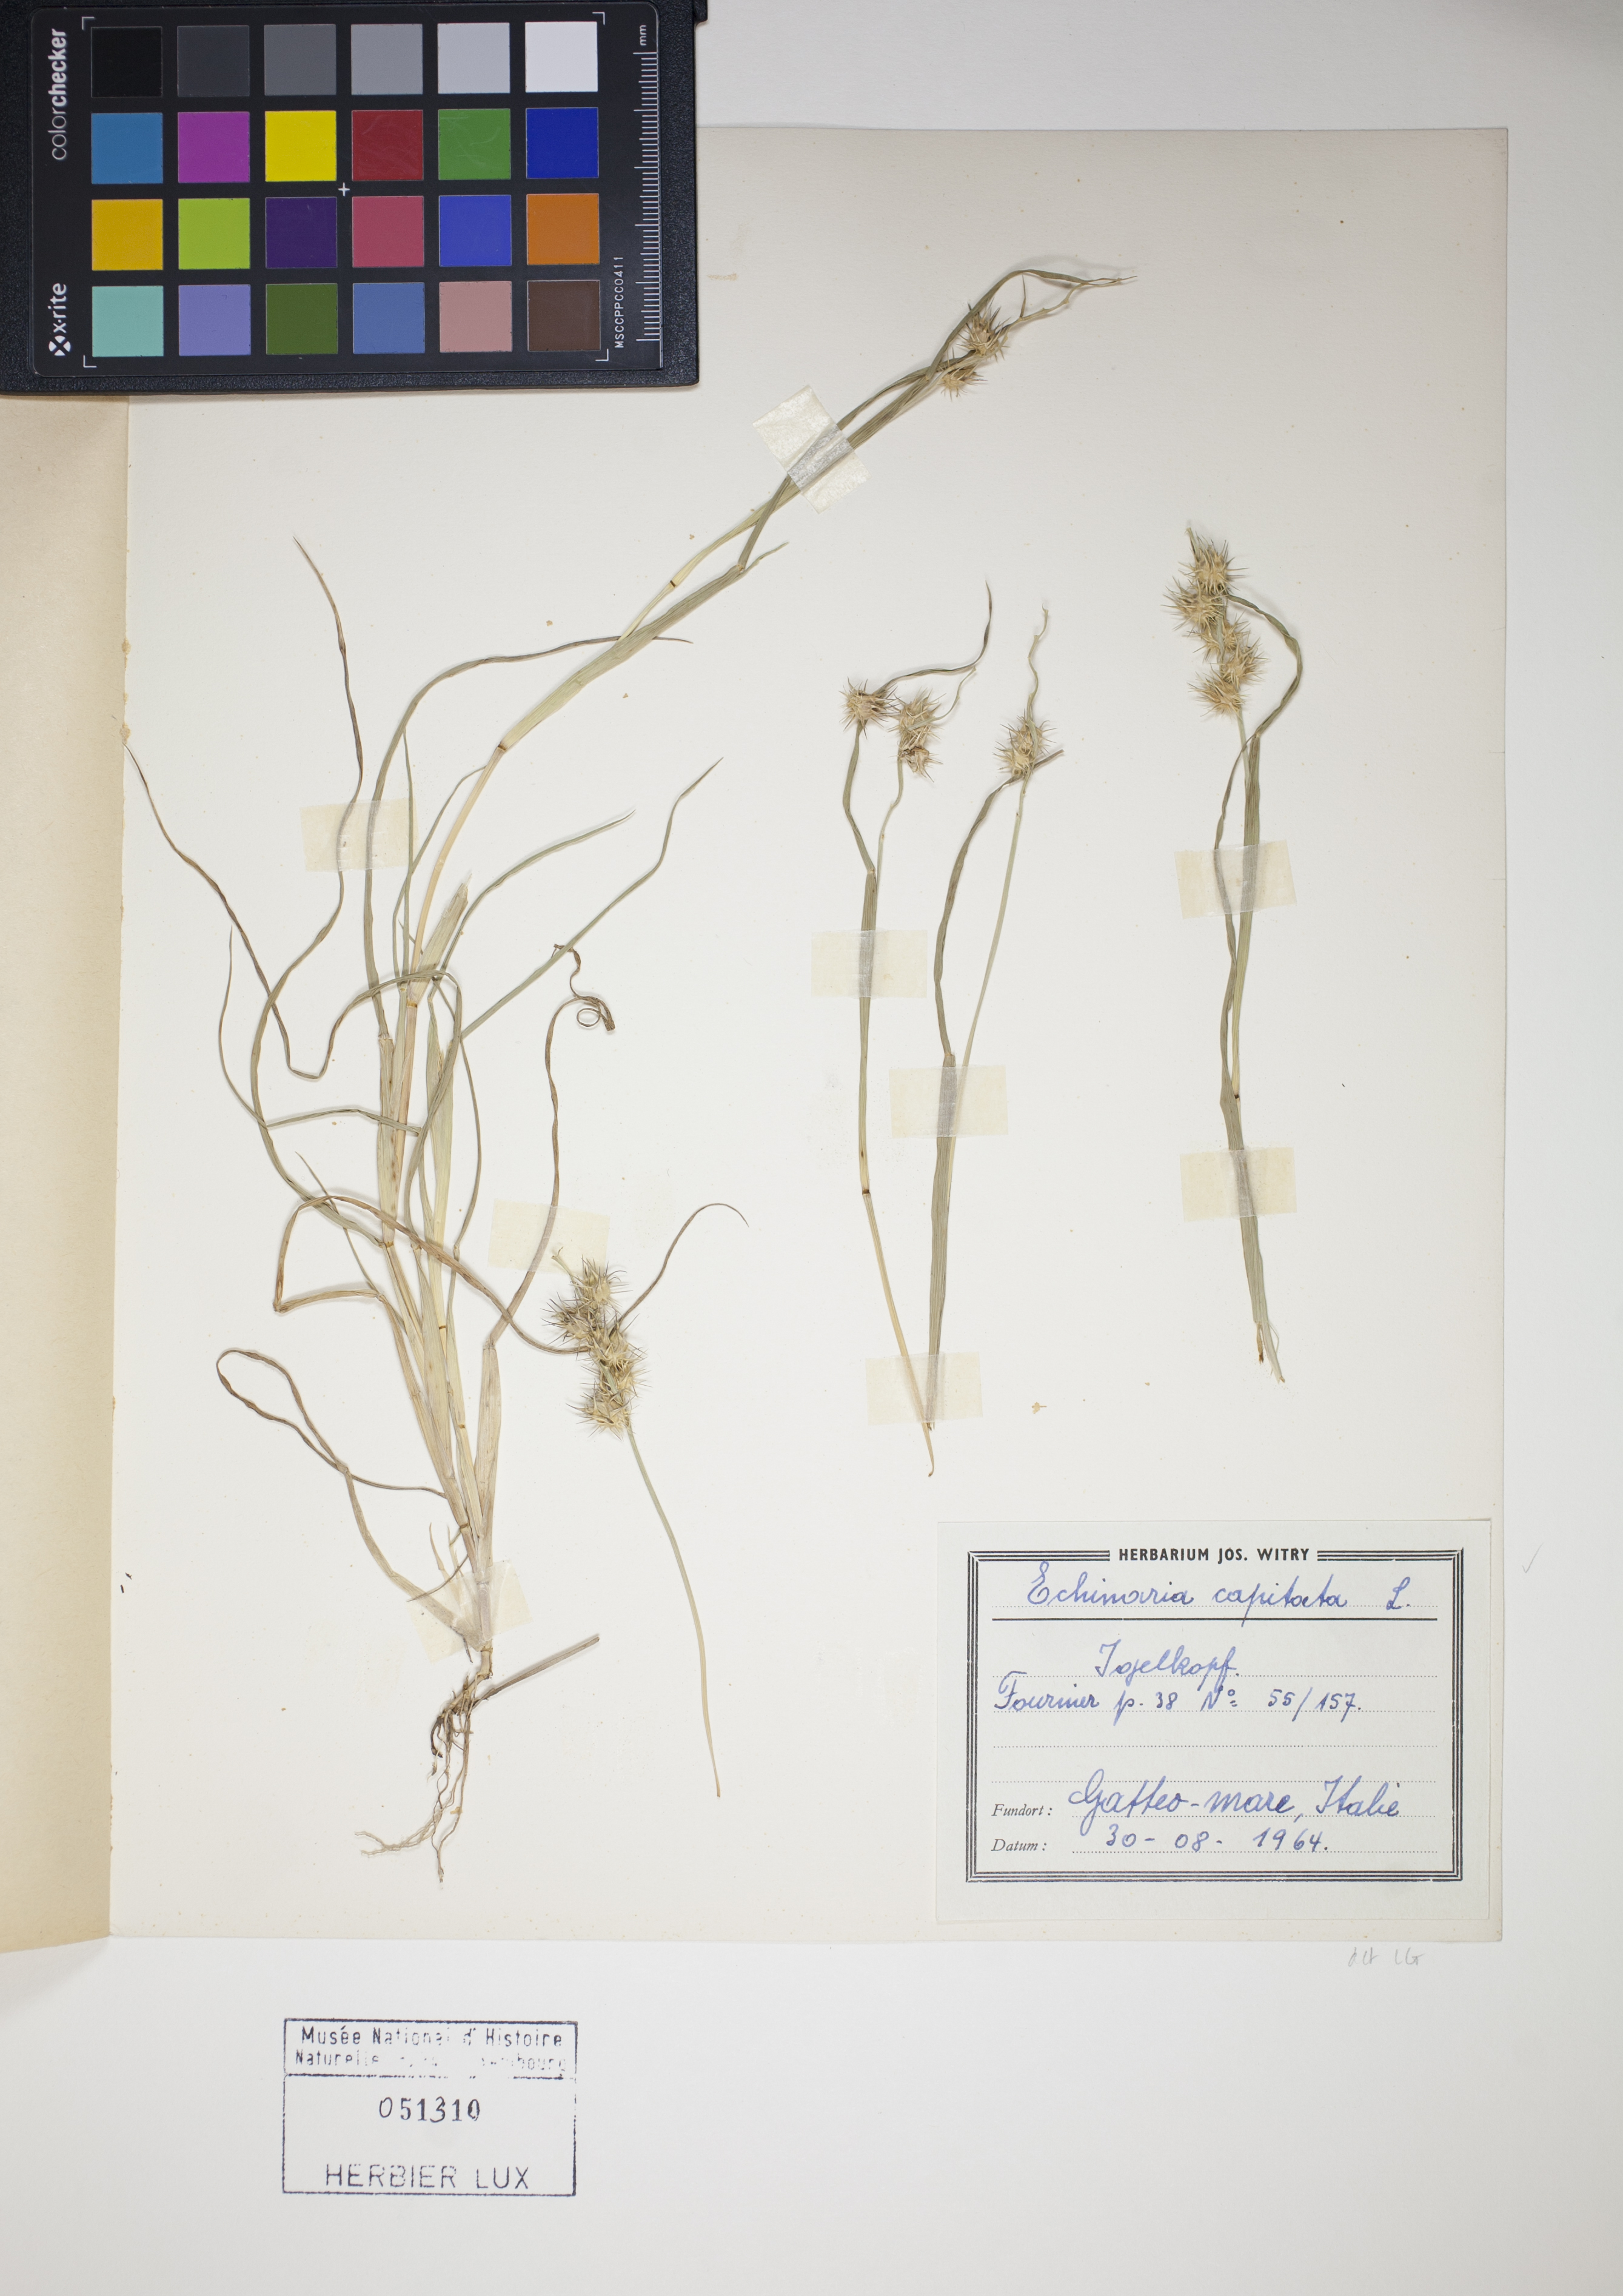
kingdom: Plantae
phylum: Tracheophyta
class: Liliopsida
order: Poales
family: Poaceae
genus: Echinaria
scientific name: Echinaria capitata
